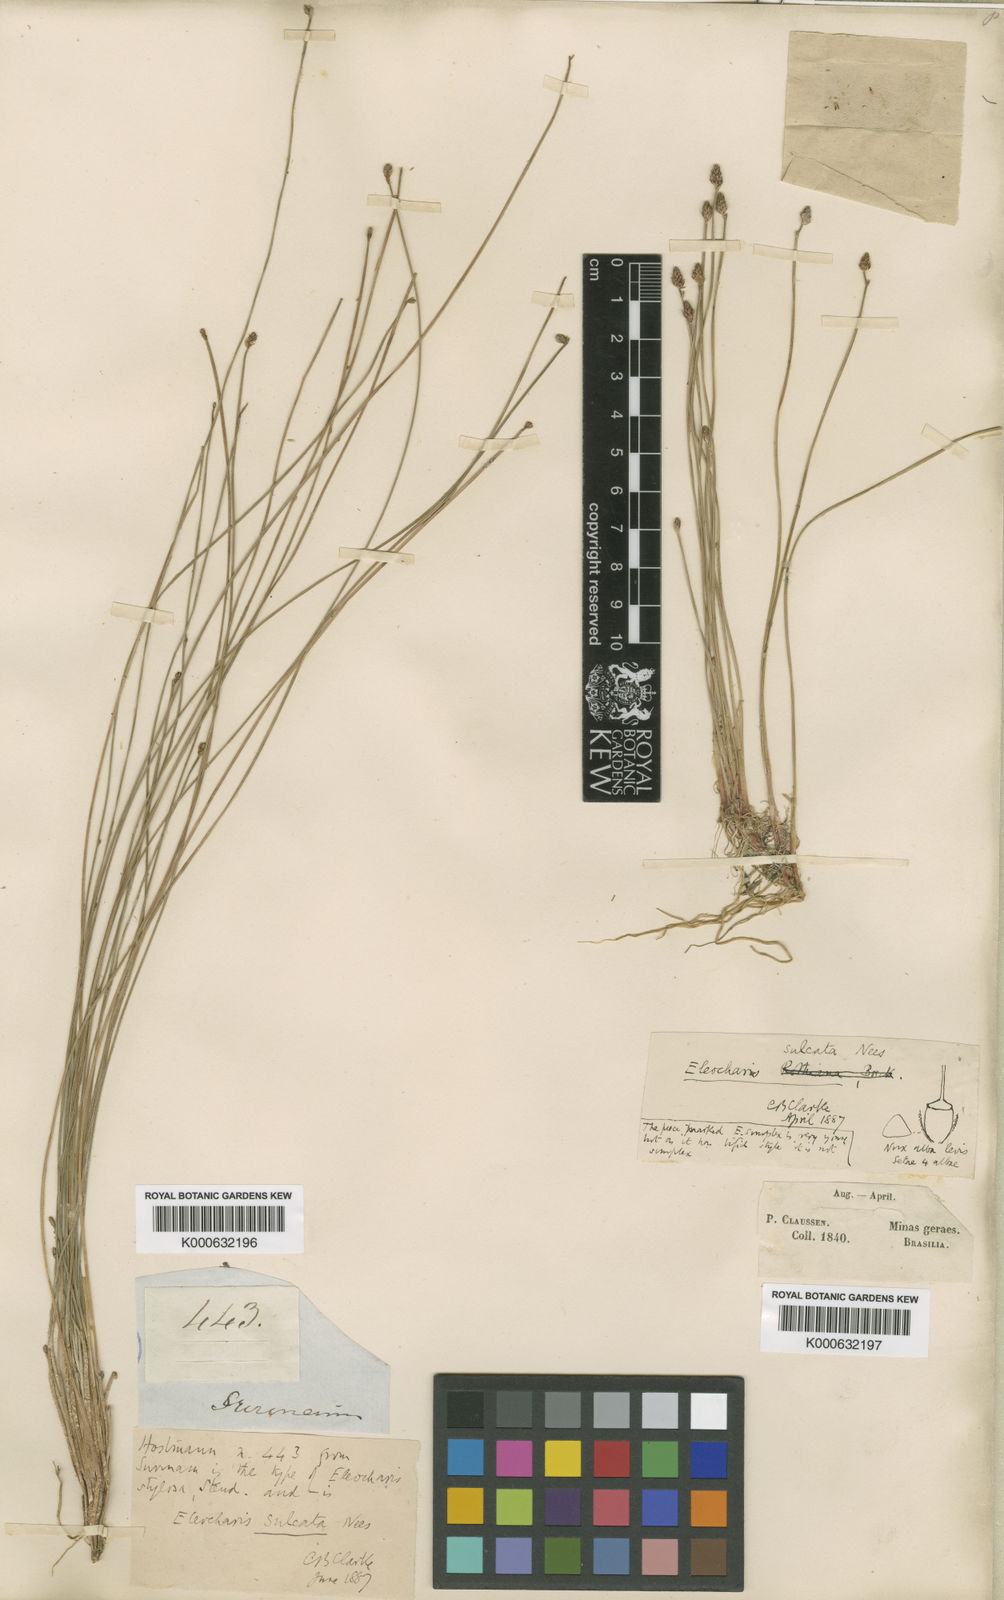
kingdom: Plantae
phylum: Tracheophyta
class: Liliopsida
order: Poales
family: Cyperaceae
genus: Eleocharis
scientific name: Eleocharis filiculmis
